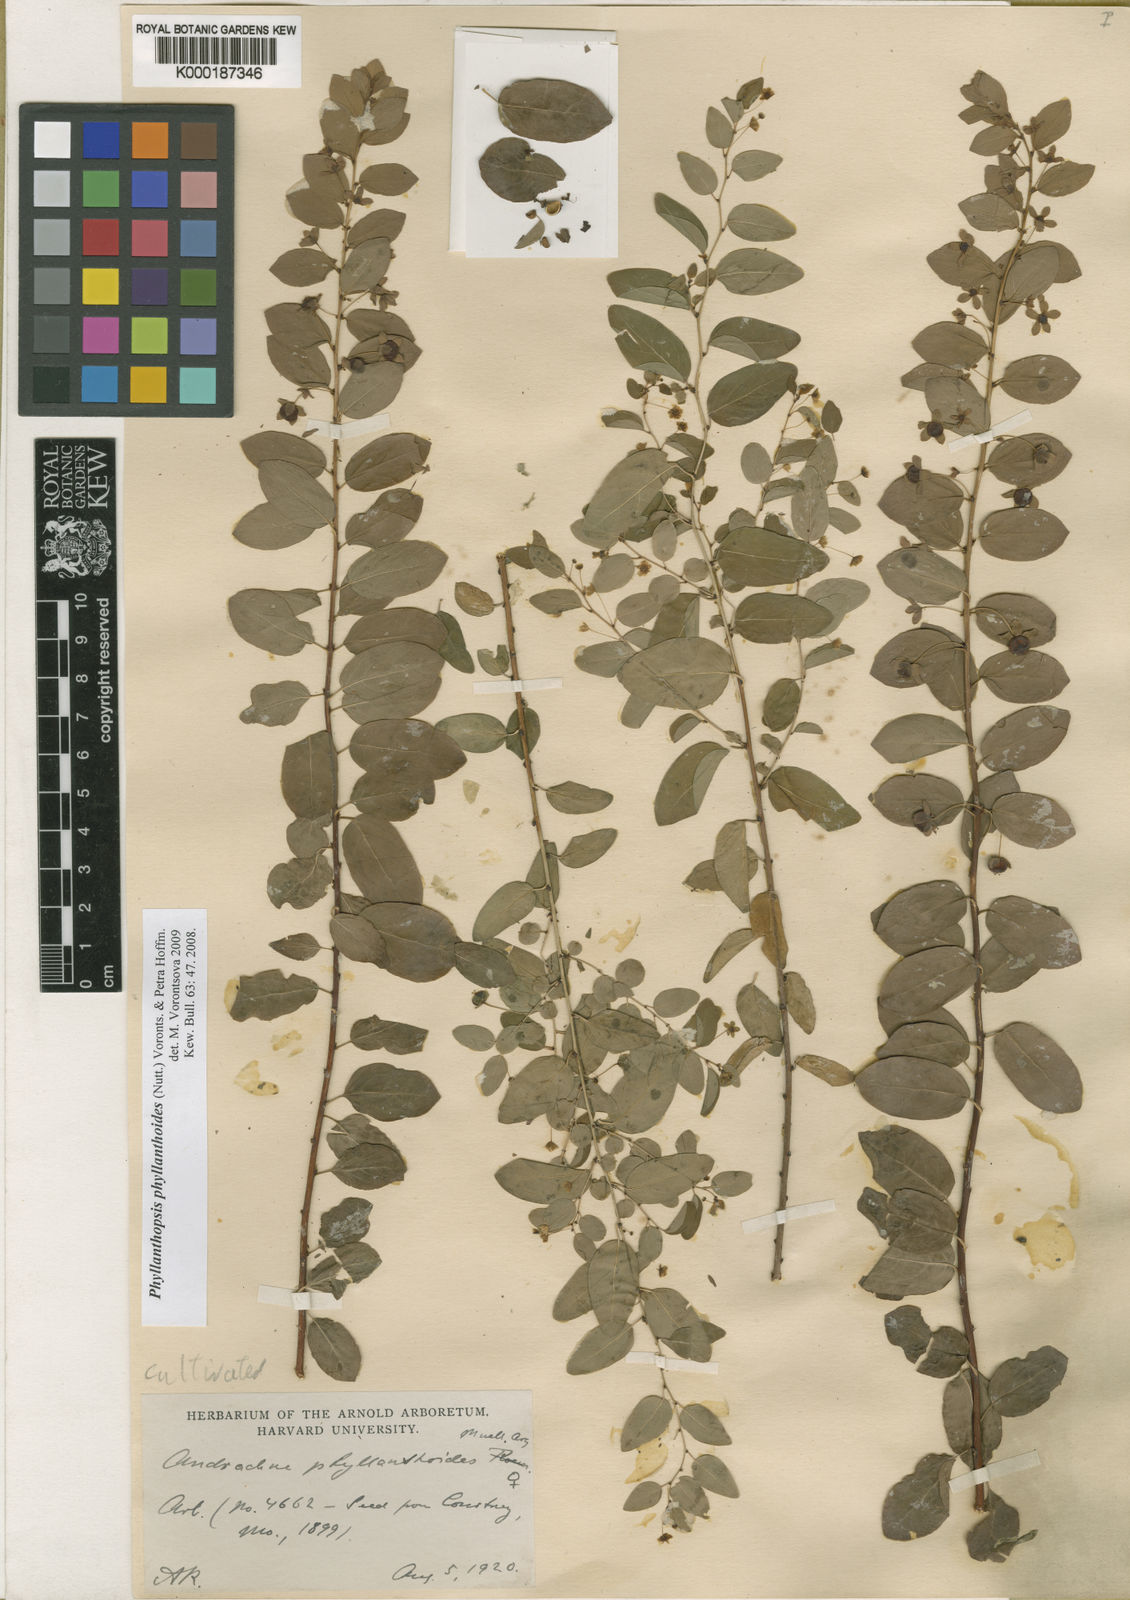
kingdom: Plantae
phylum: Tracheophyta
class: Magnoliopsida
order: Malpighiales
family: Phyllanthaceae
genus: Andrachne
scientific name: Andrachne
